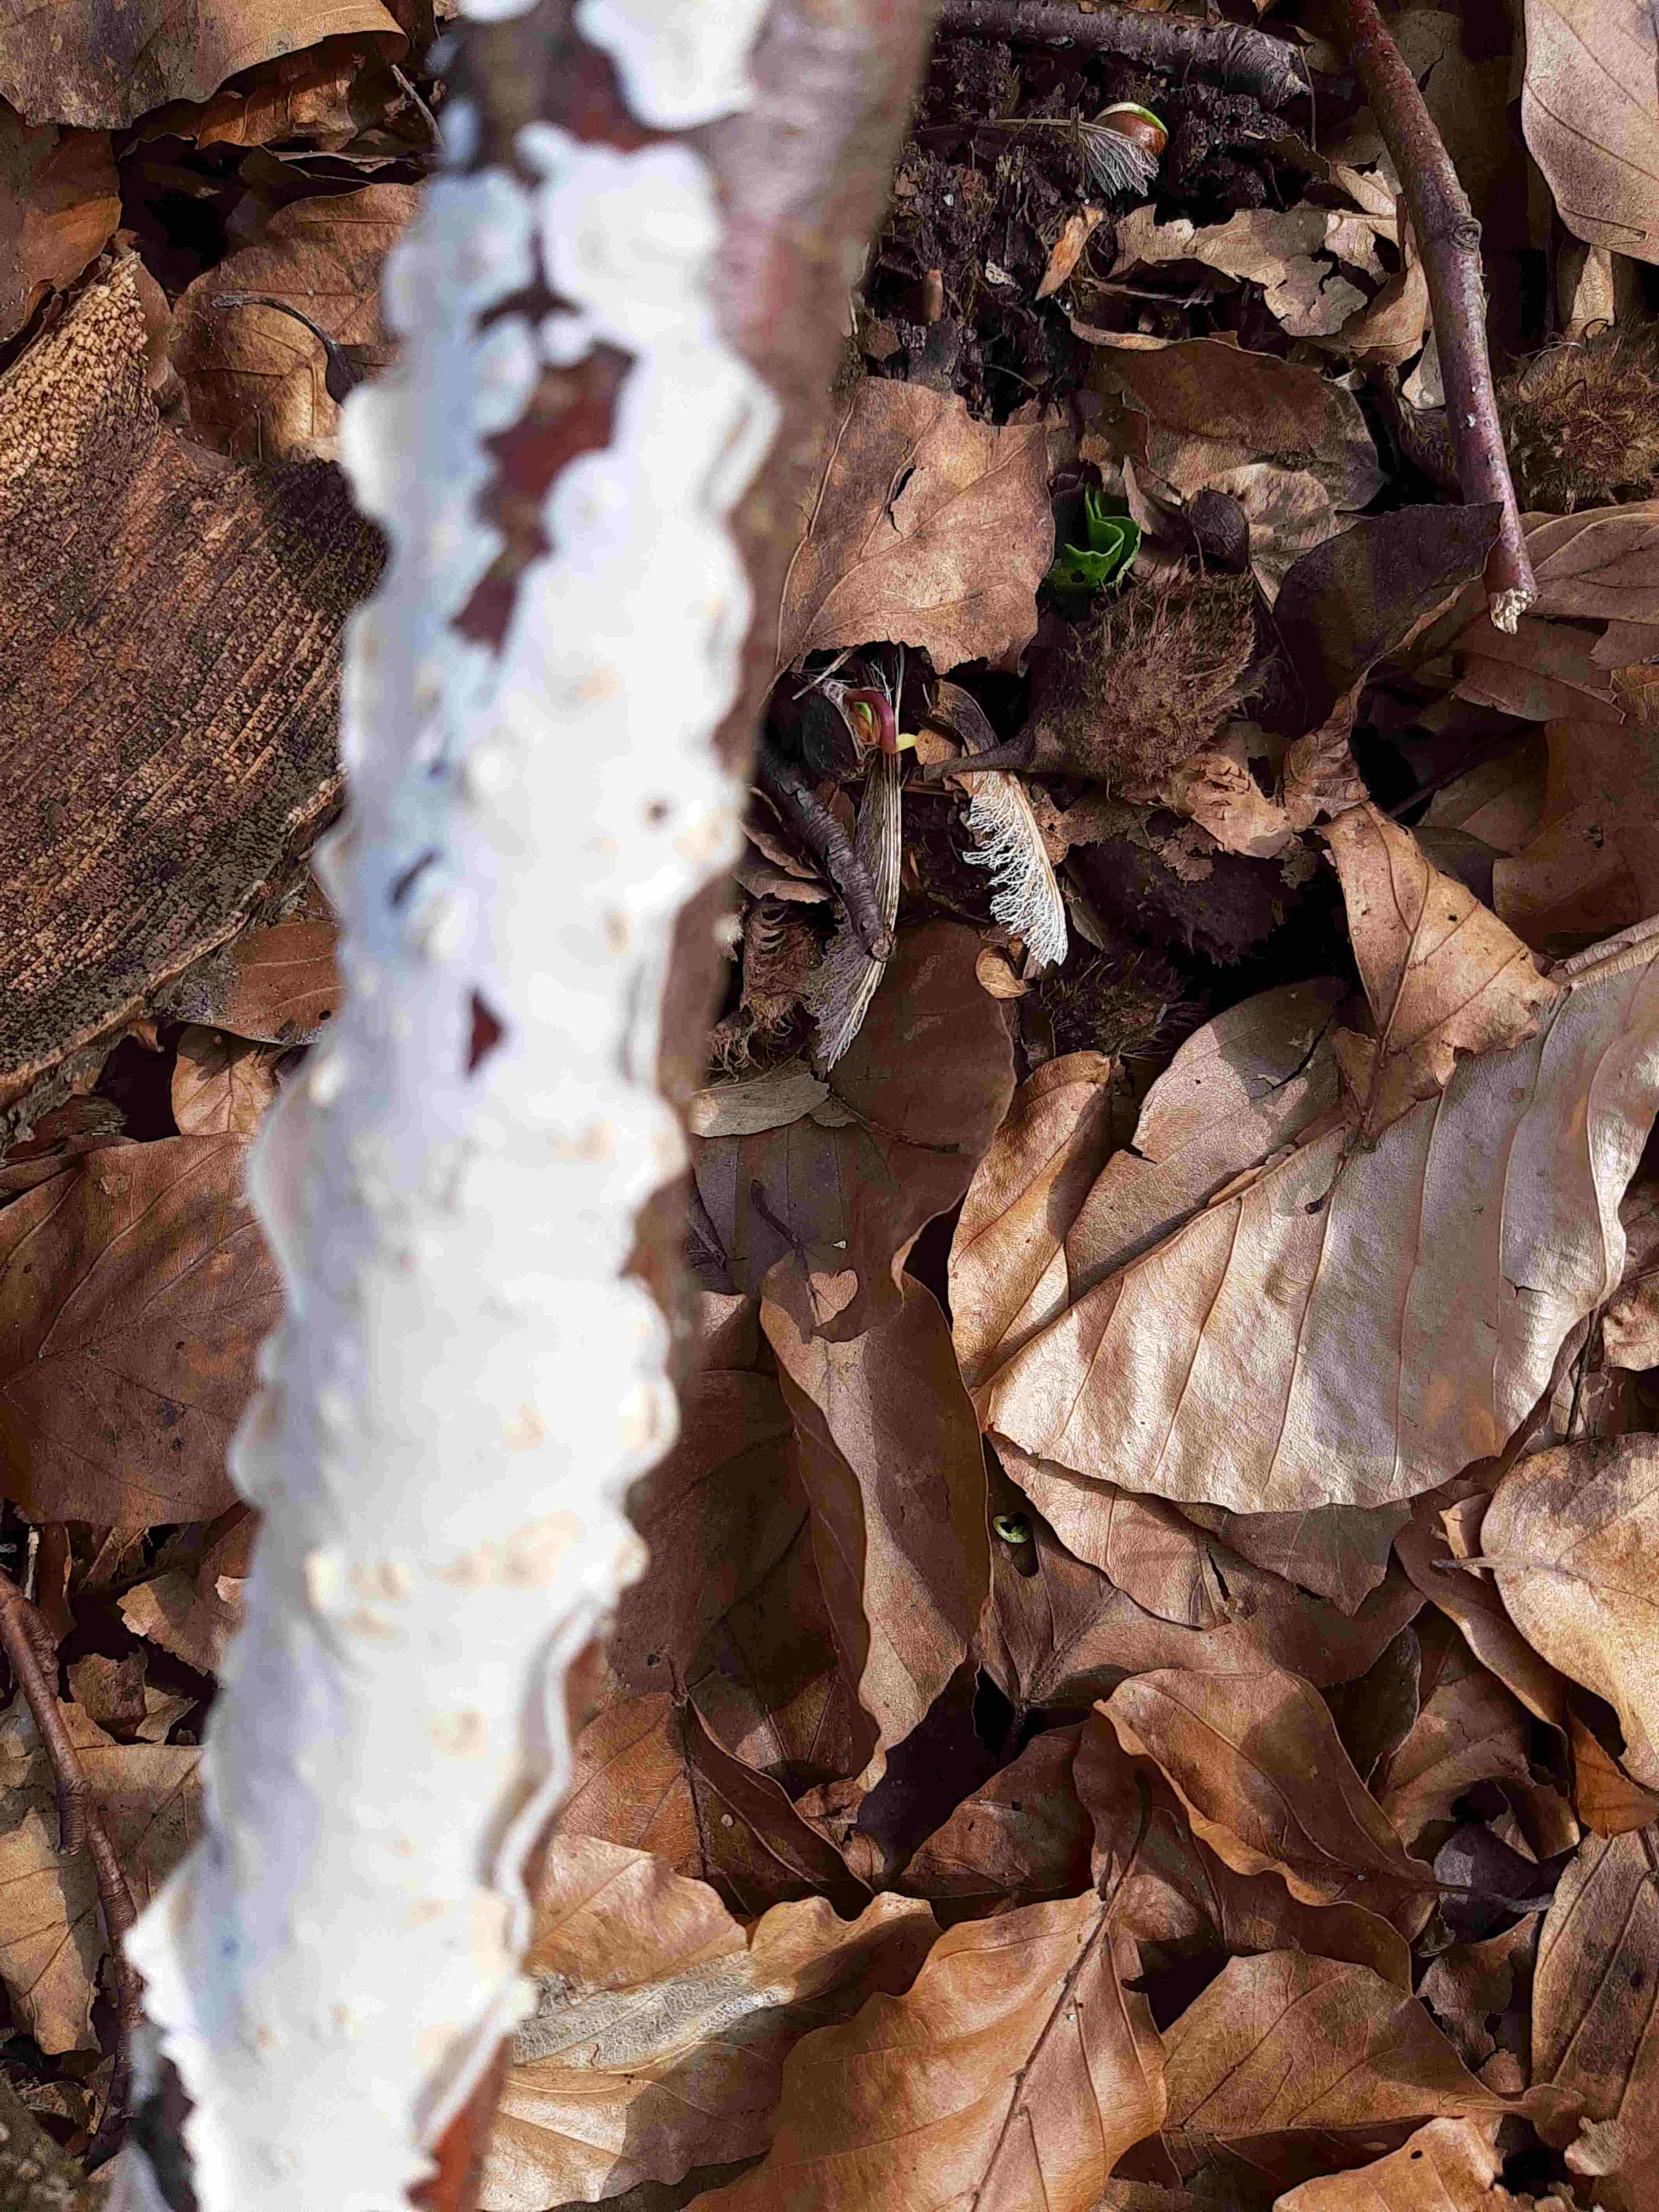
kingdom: Fungi
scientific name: Fungi
